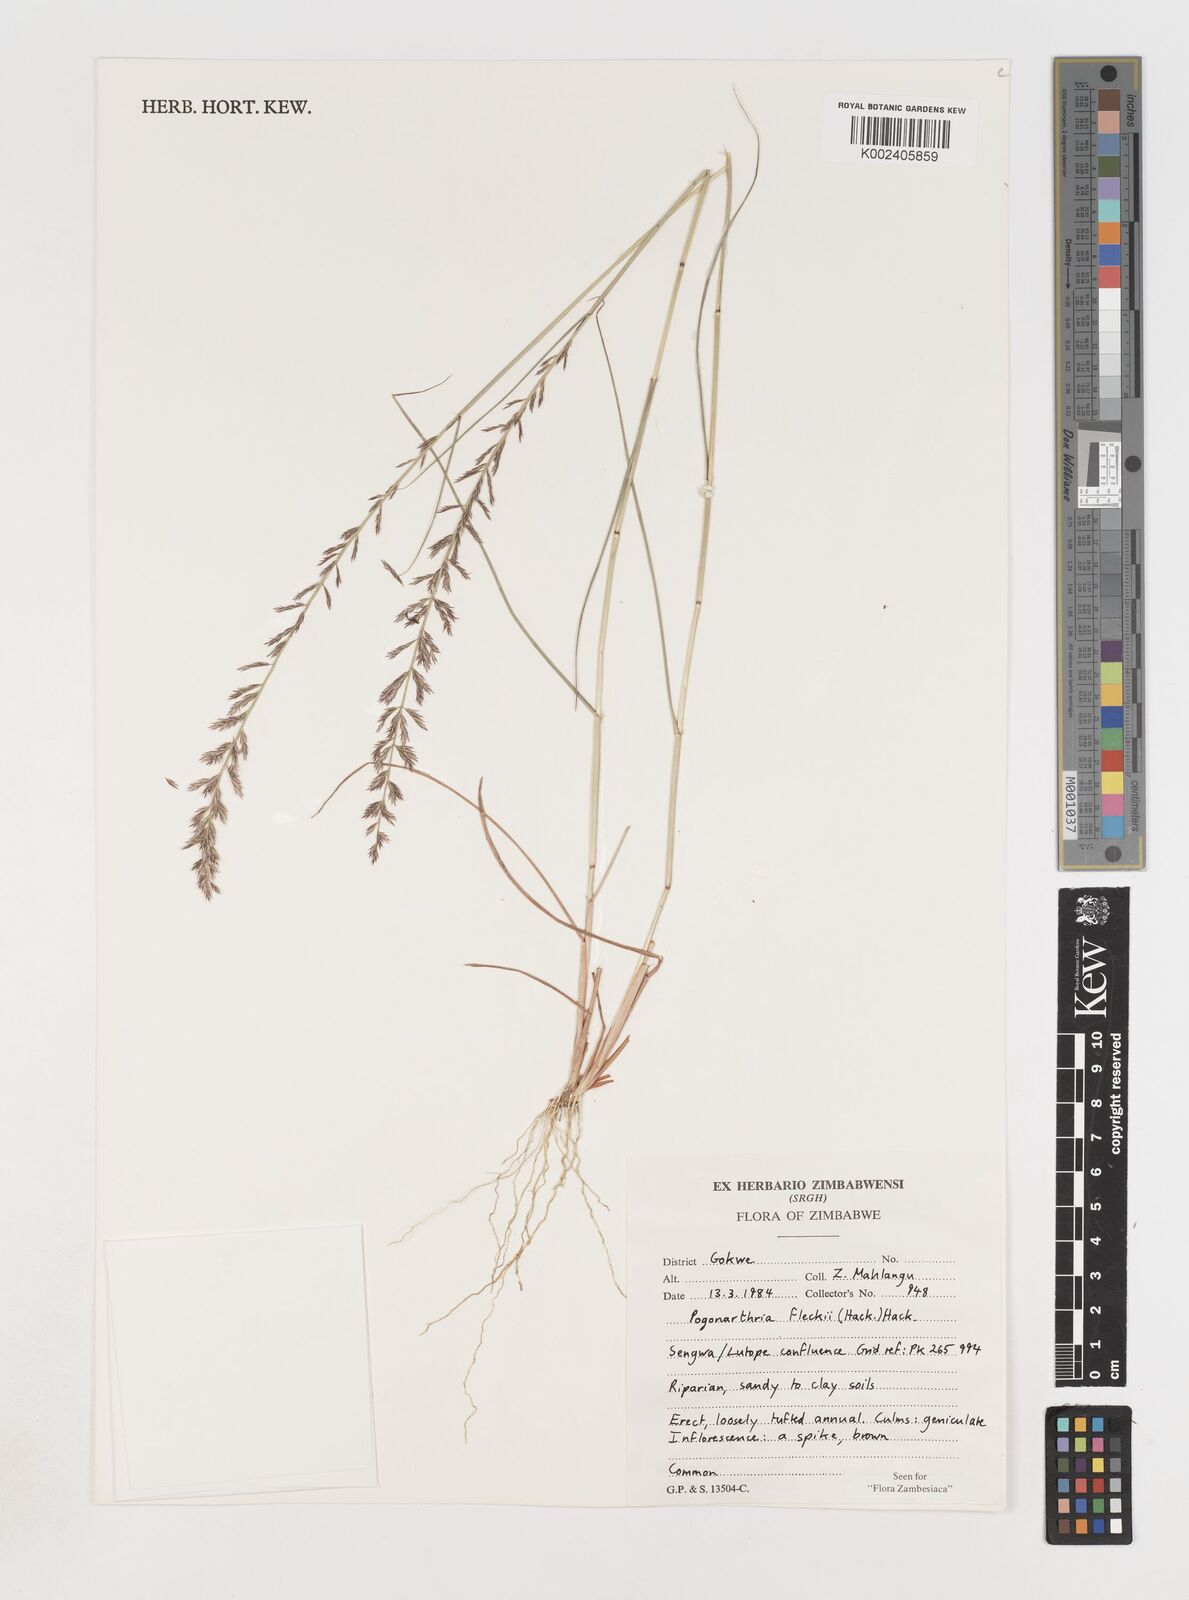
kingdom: Plantae
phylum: Tracheophyta
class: Liliopsida
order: Poales
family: Poaceae
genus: Pogonarthria
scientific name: Pogonarthria fleckii
